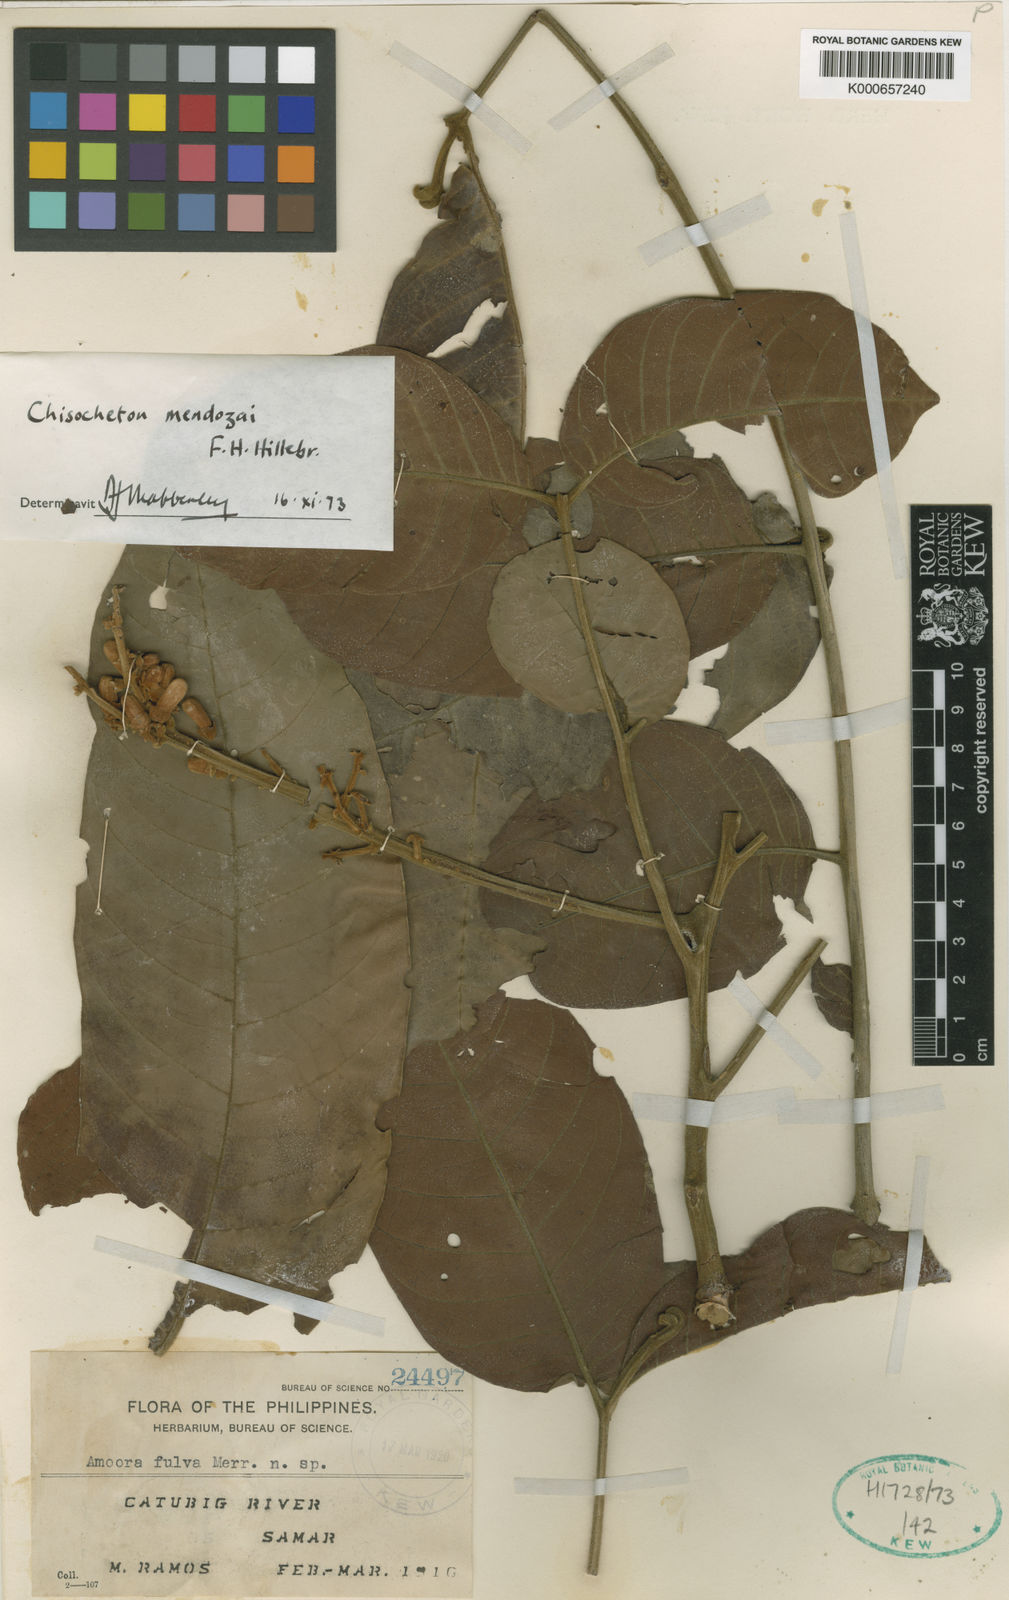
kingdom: Plantae
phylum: Tracheophyta
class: Magnoliopsida
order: Sapindales
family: Meliaceae
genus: Chisocheton
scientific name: Chisocheton mendozai
